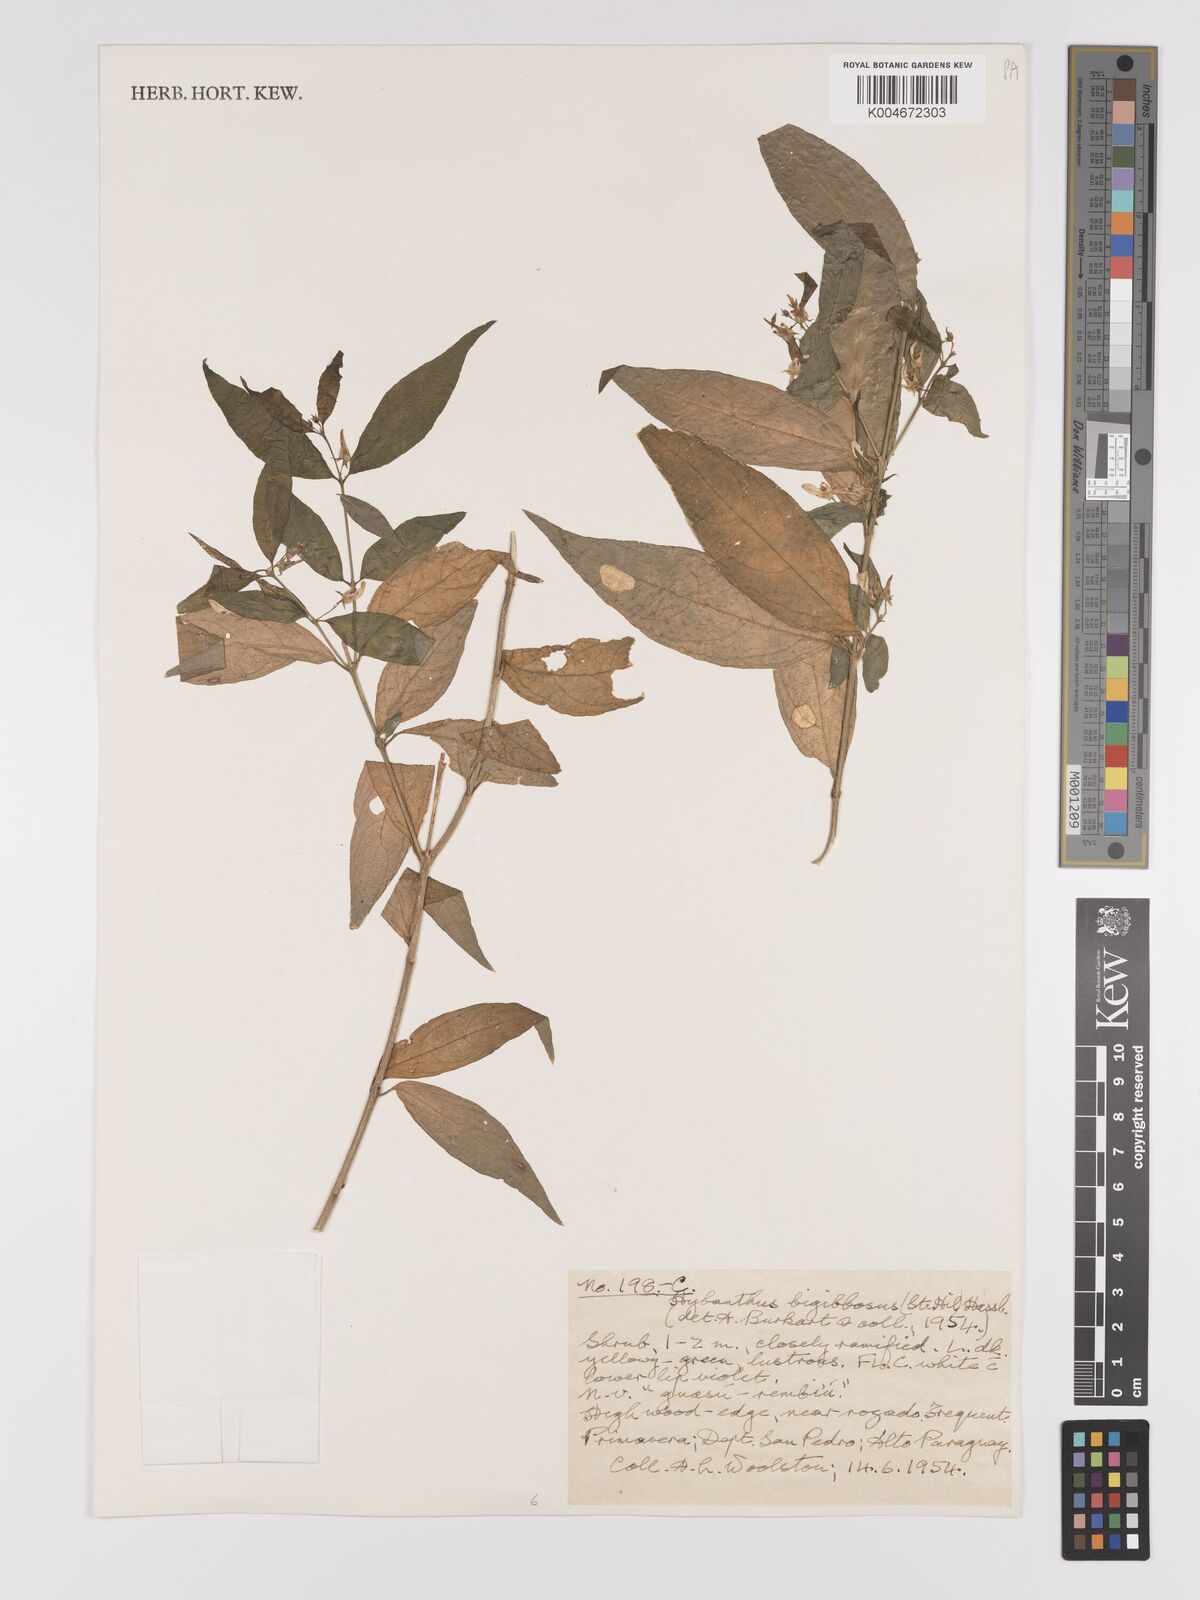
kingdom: Plantae
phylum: Tracheophyta
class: Magnoliopsida
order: Malpighiales
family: Violaceae
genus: Pombalia
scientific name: Pombalia bigibbosa
